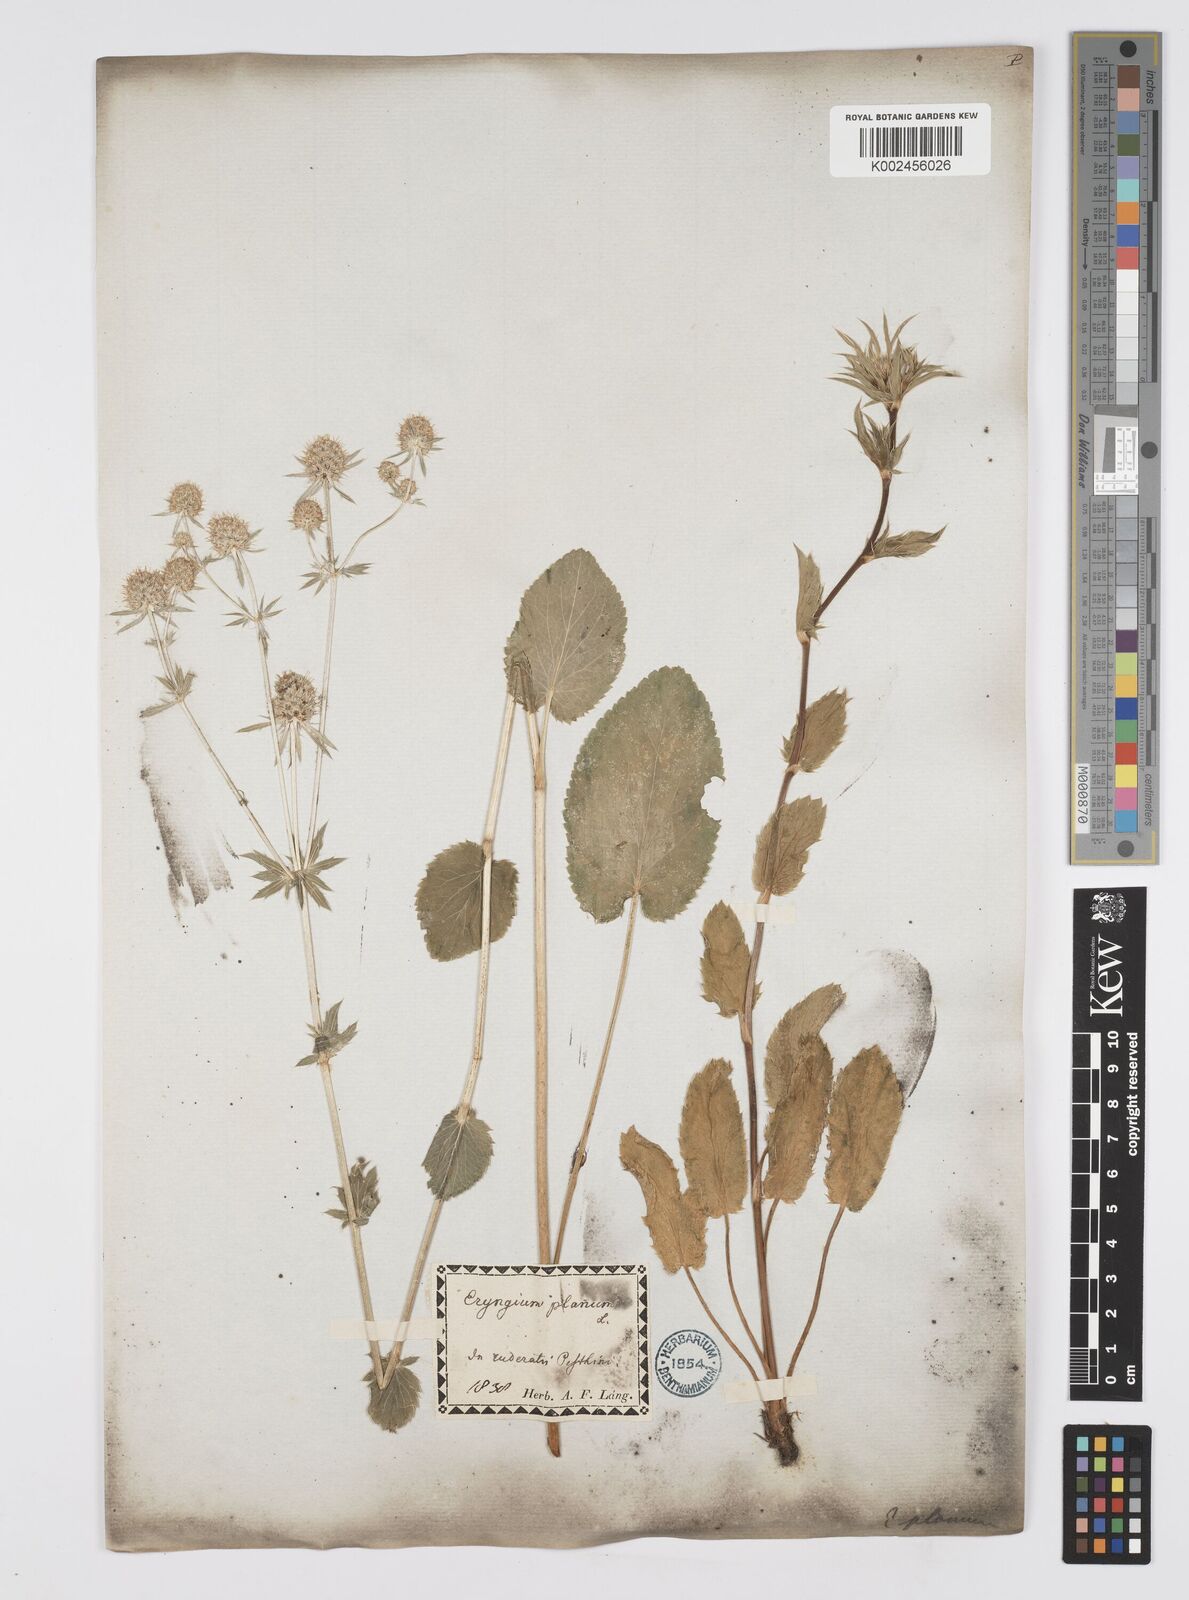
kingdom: Plantae
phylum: Tracheophyta
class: Magnoliopsida
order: Apiales
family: Apiaceae
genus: Eryngium
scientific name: Eryngium planum
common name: Blue eryngo
